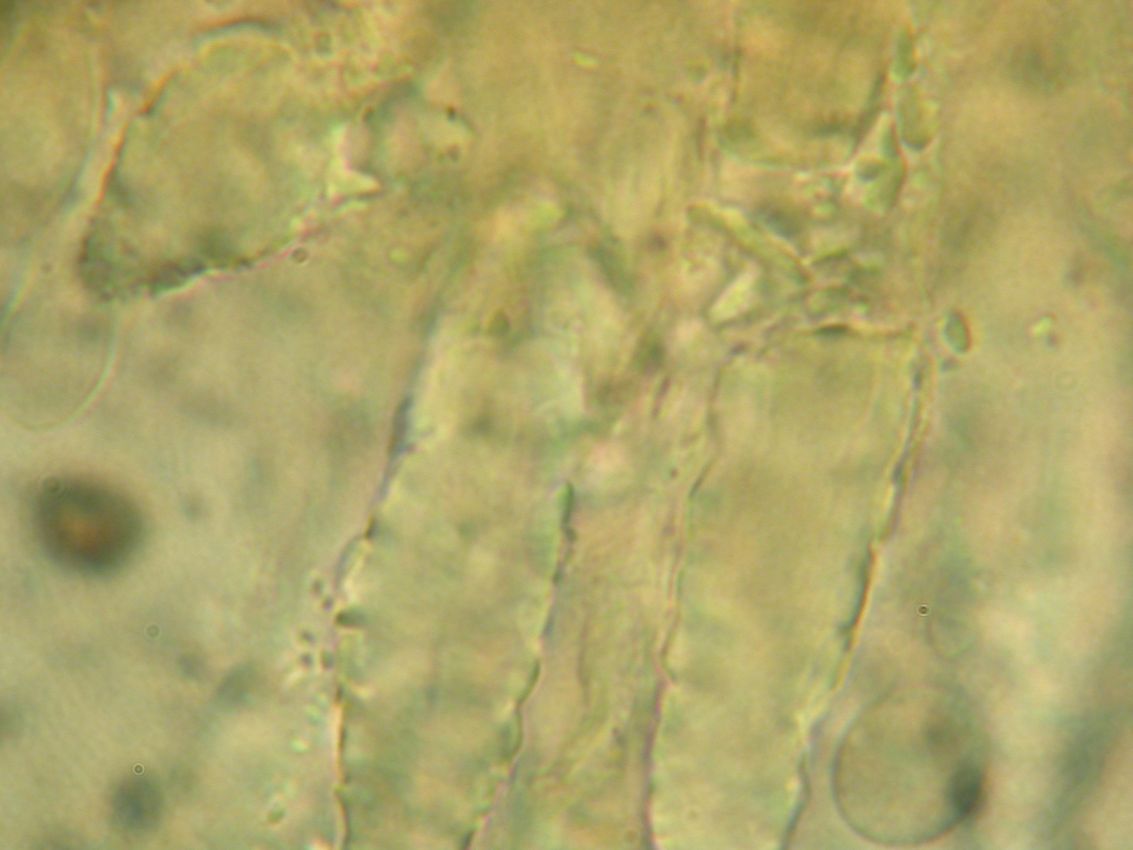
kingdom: Fungi
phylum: Basidiomycota
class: Agaricomycetes
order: Polyporales
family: Steccherinaceae
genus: Steccherinum
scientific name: Steccherinum oreophilum
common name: kvist-skønpig
